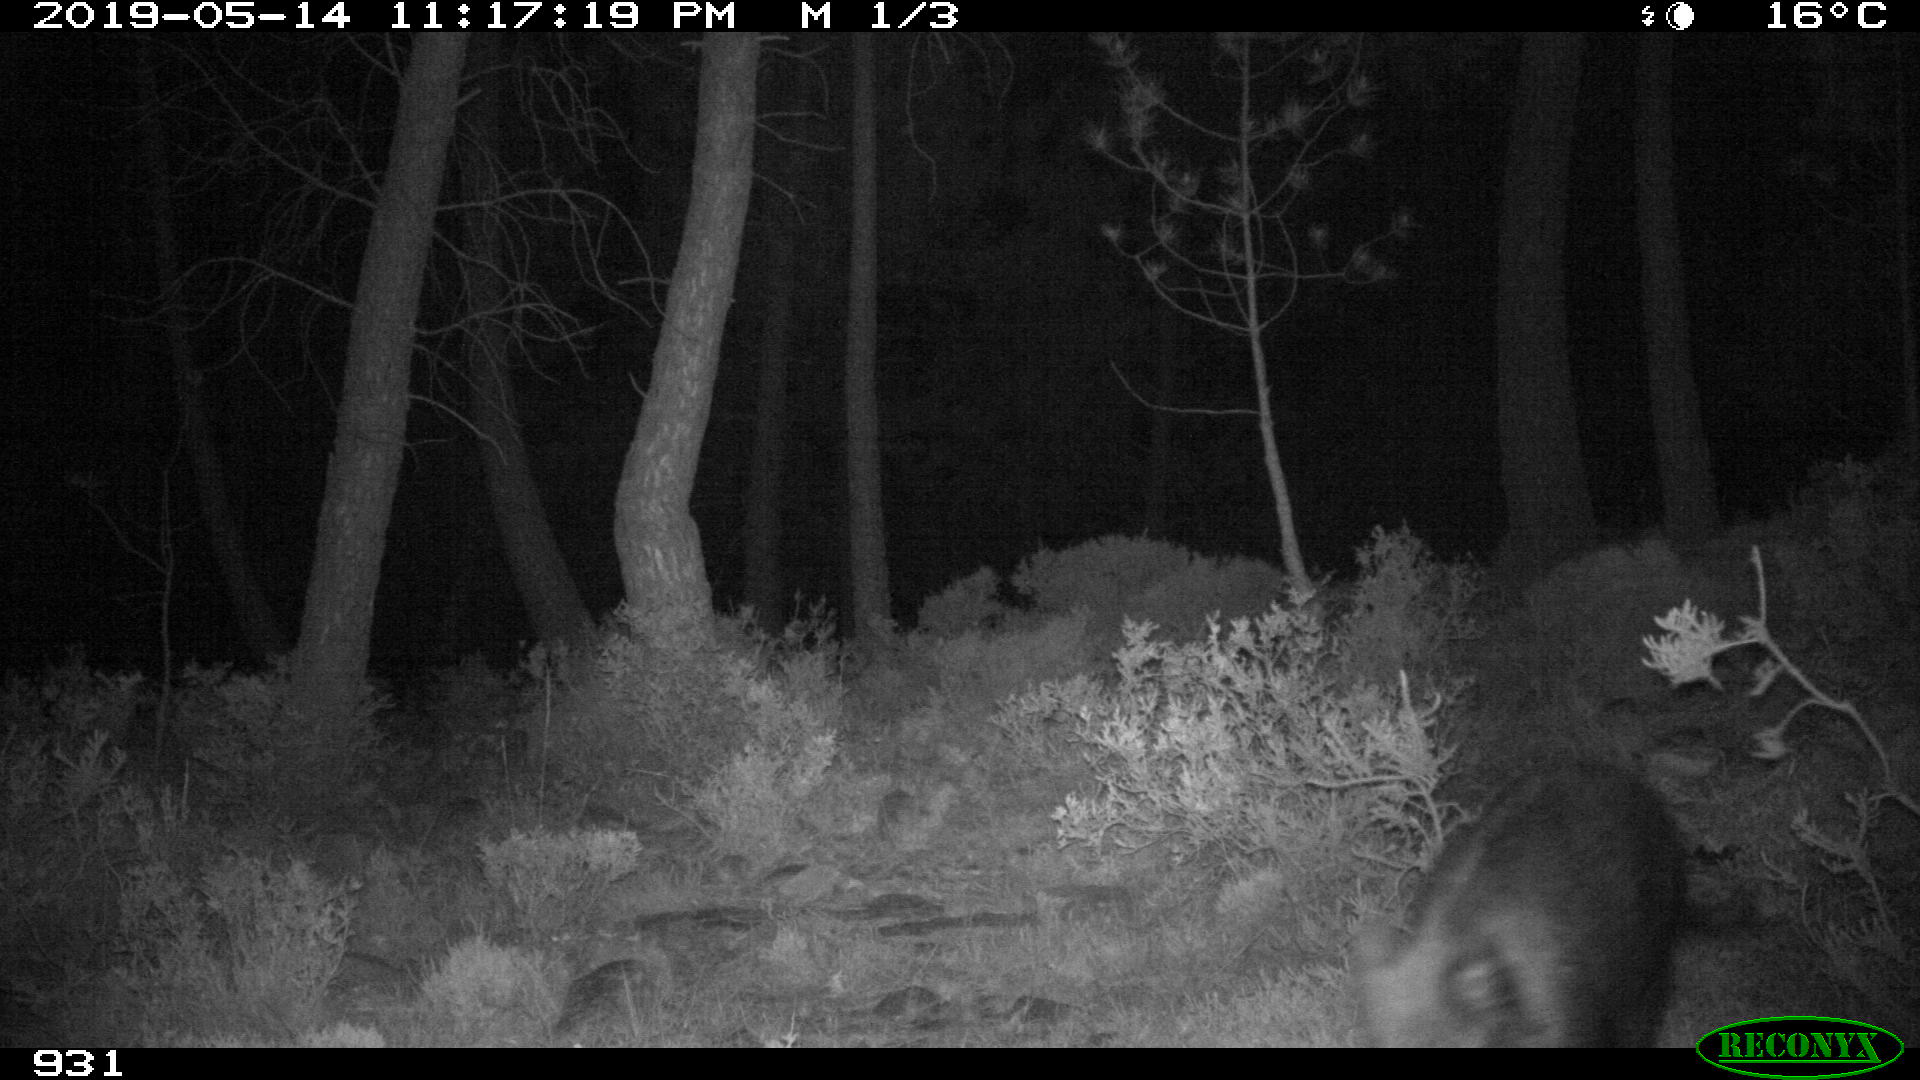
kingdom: Animalia
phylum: Chordata
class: Mammalia
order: Artiodactyla
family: Suidae
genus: Sus
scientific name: Sus scrofa
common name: Wild boar
